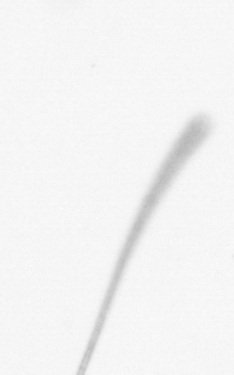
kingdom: Chromista
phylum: Ochrophyta
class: Bacillariophyceae
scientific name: Bacillariophyceae
